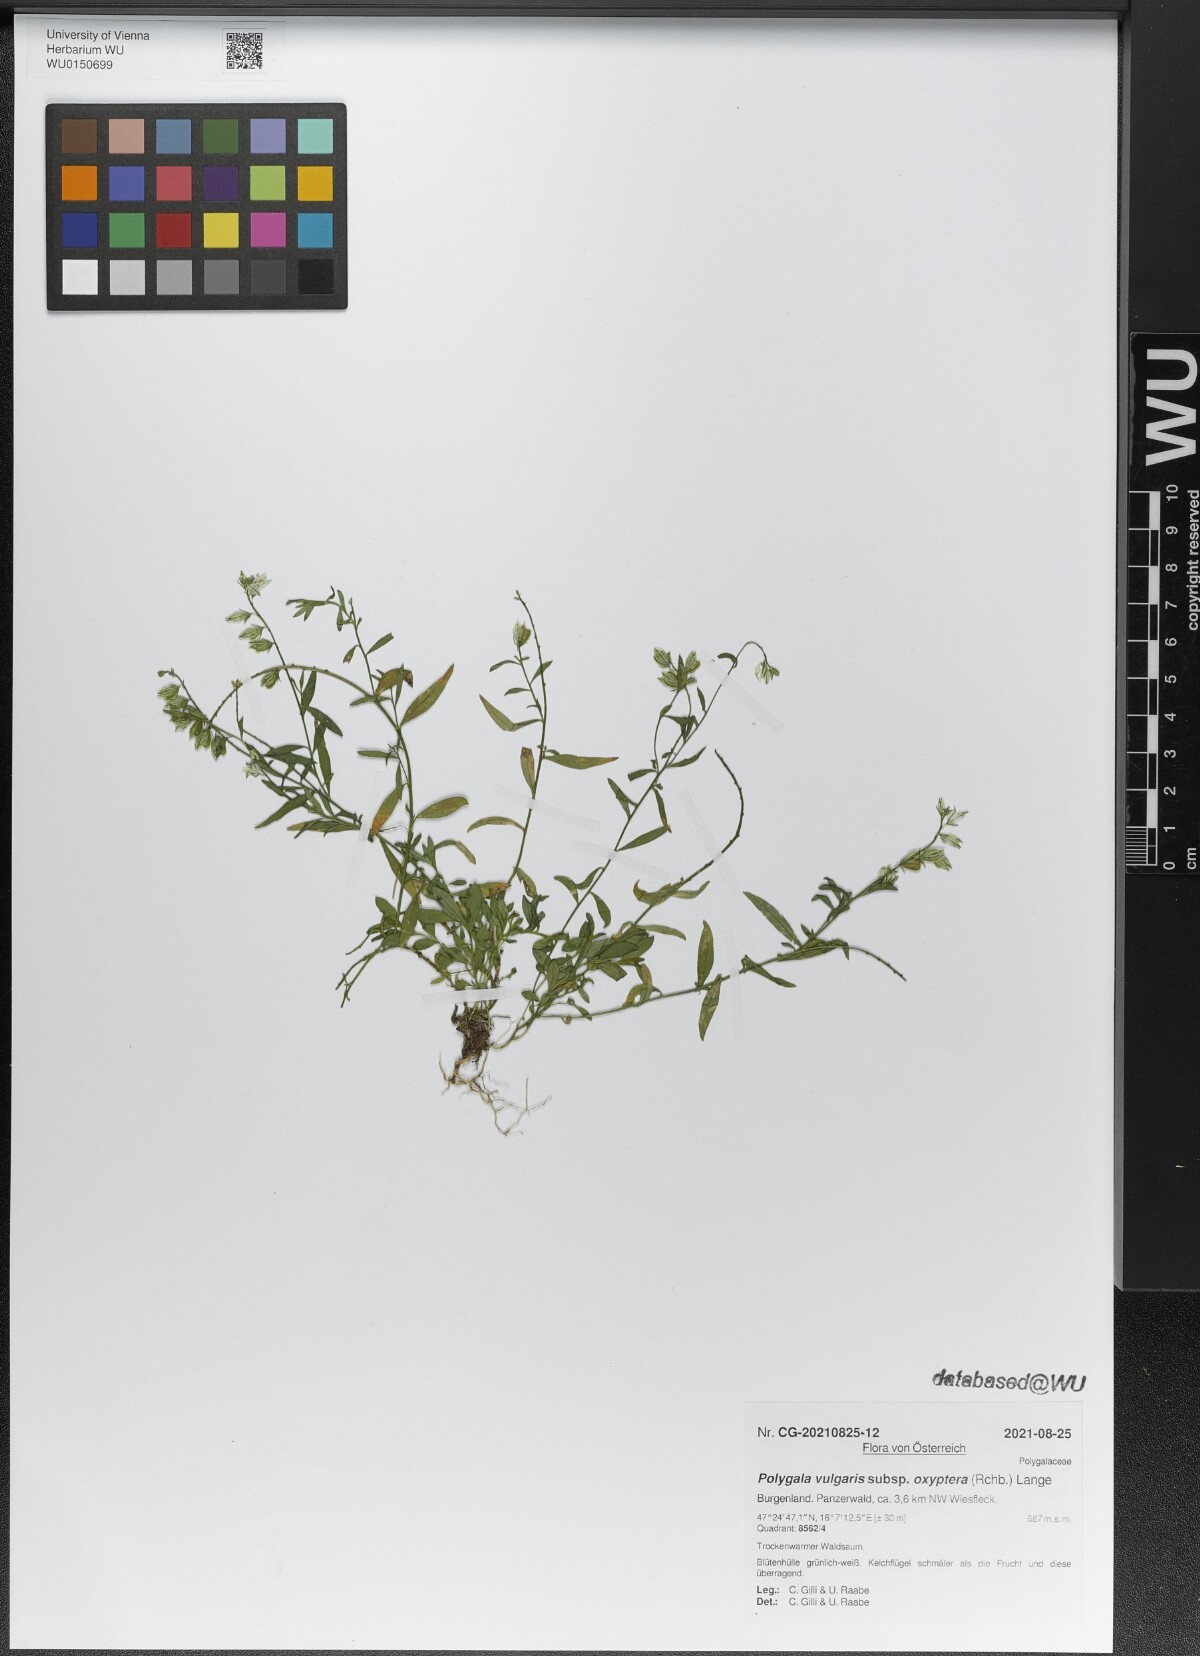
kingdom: Plantae
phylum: Tracheophyta
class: Magnoliopsida
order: Fabales
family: Polygalaceae
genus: Polygala
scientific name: Polygala vulgaris
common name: Common milkwort
